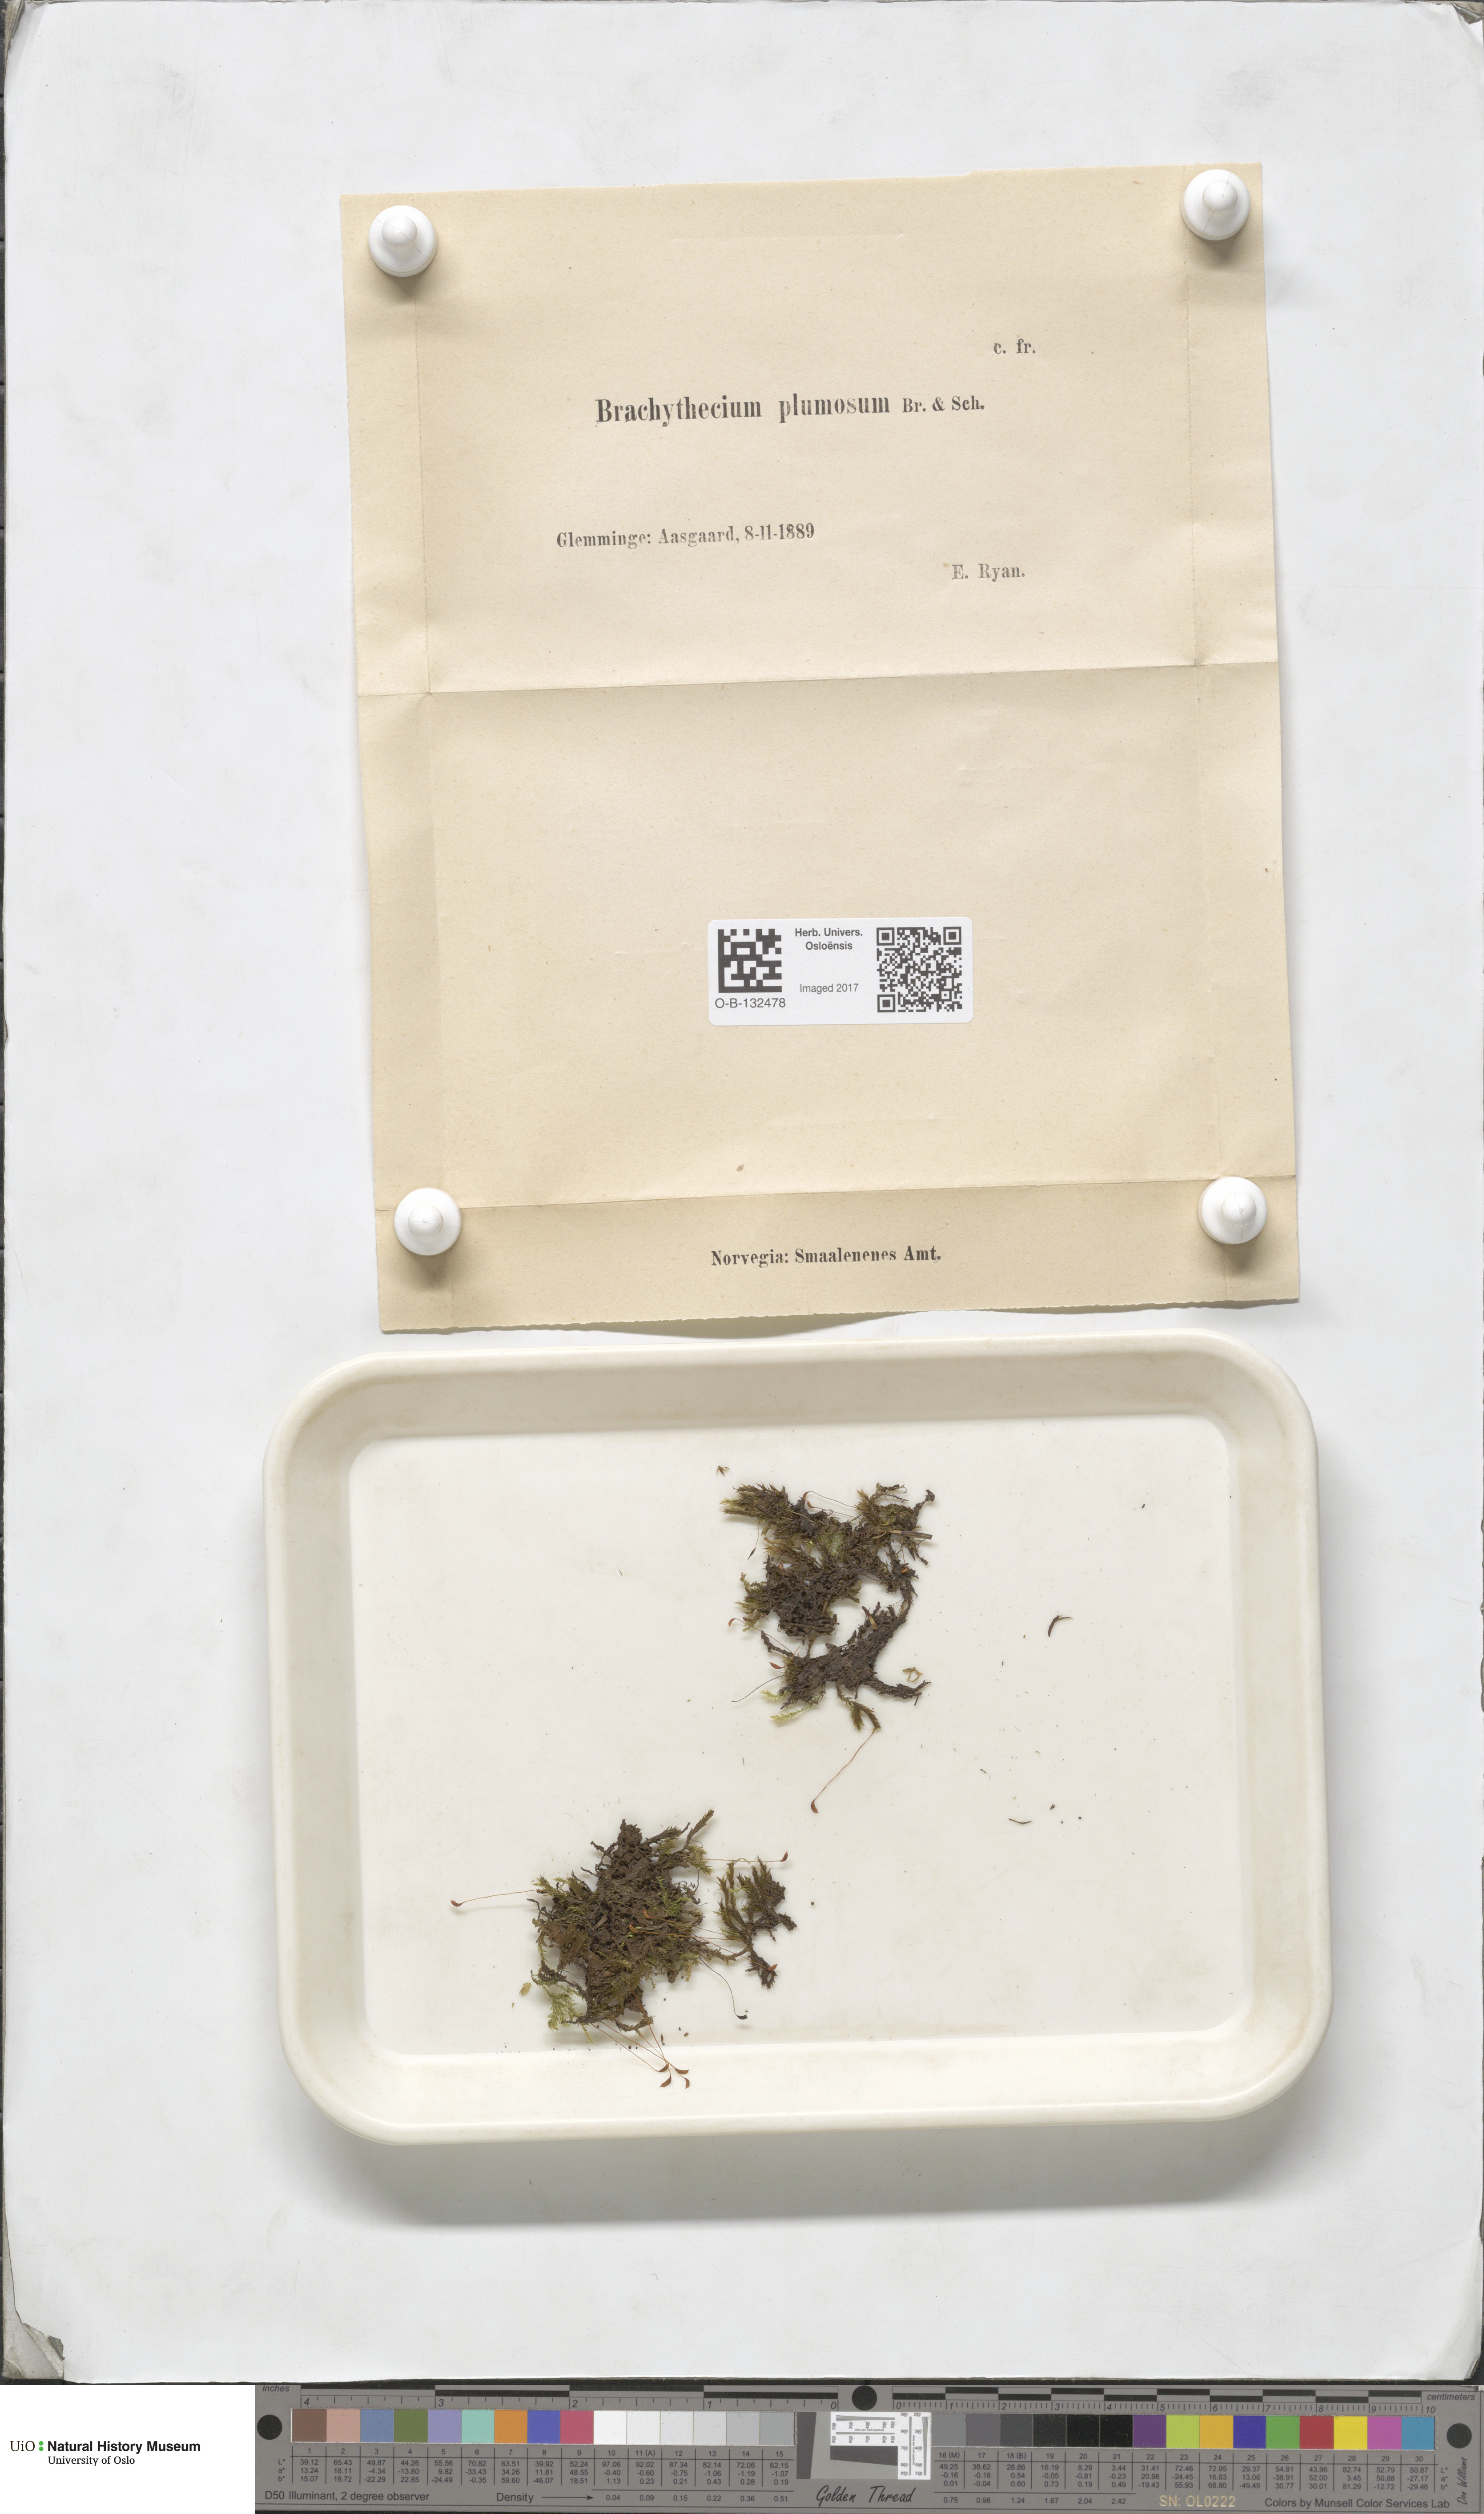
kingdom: Plantae
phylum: Bryophyta
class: Bryopsida
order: Hypnales
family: Brachytheciaceae
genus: Sciuro-hypnum
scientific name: Sciuro-hypnum plumosum
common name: Rusty feather-moss
